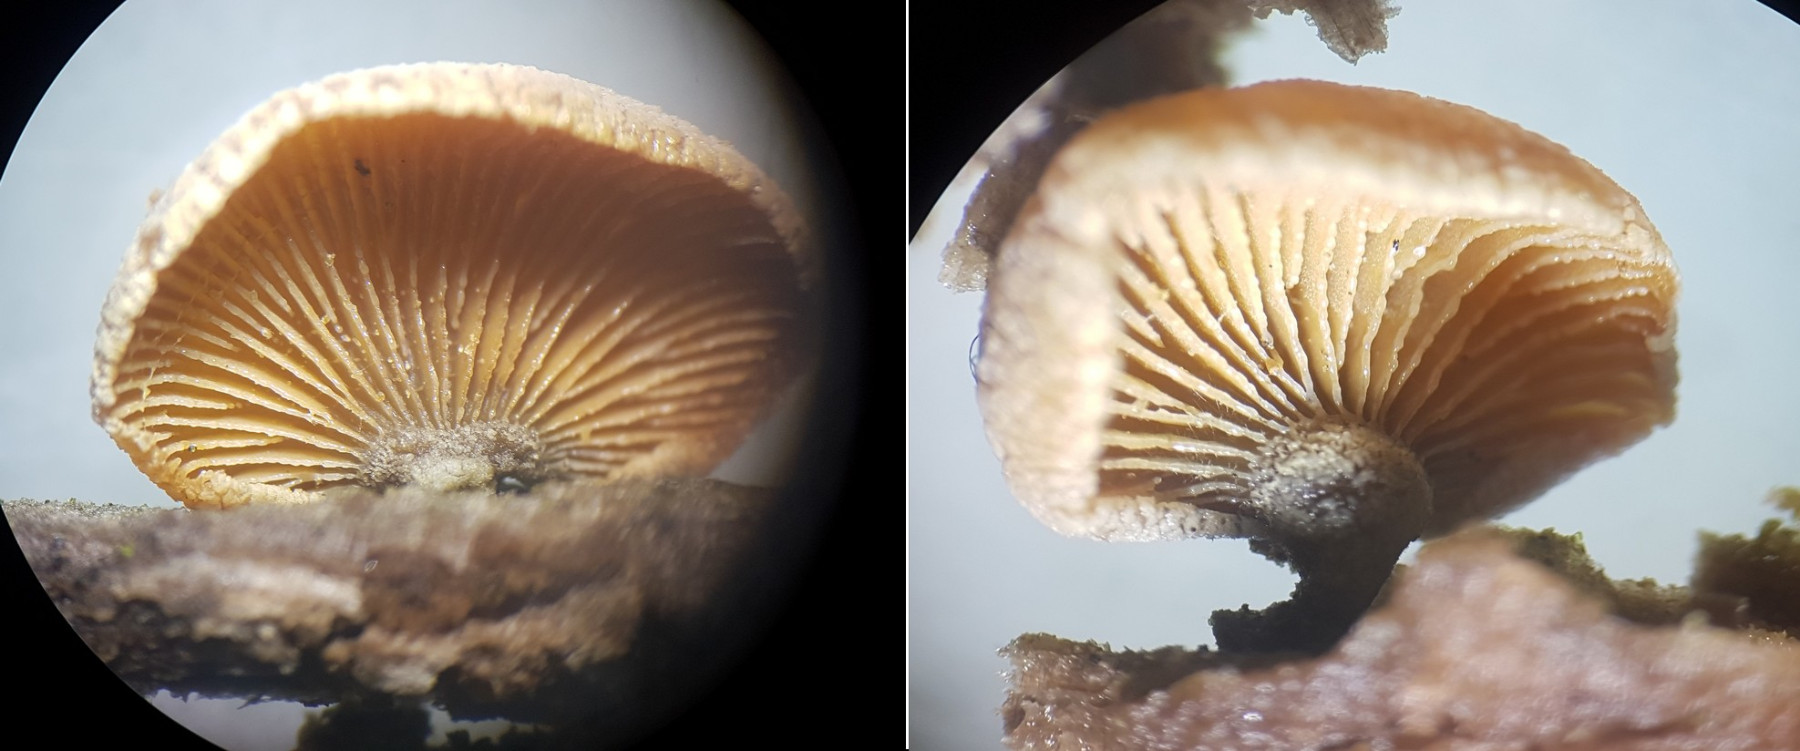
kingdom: Fungi
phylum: Basidiomycota
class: Agaricomycetes
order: Agaricales
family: Mycenaceae
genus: Panellus
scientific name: Panellus stipticus
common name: kliddet epaulethat
